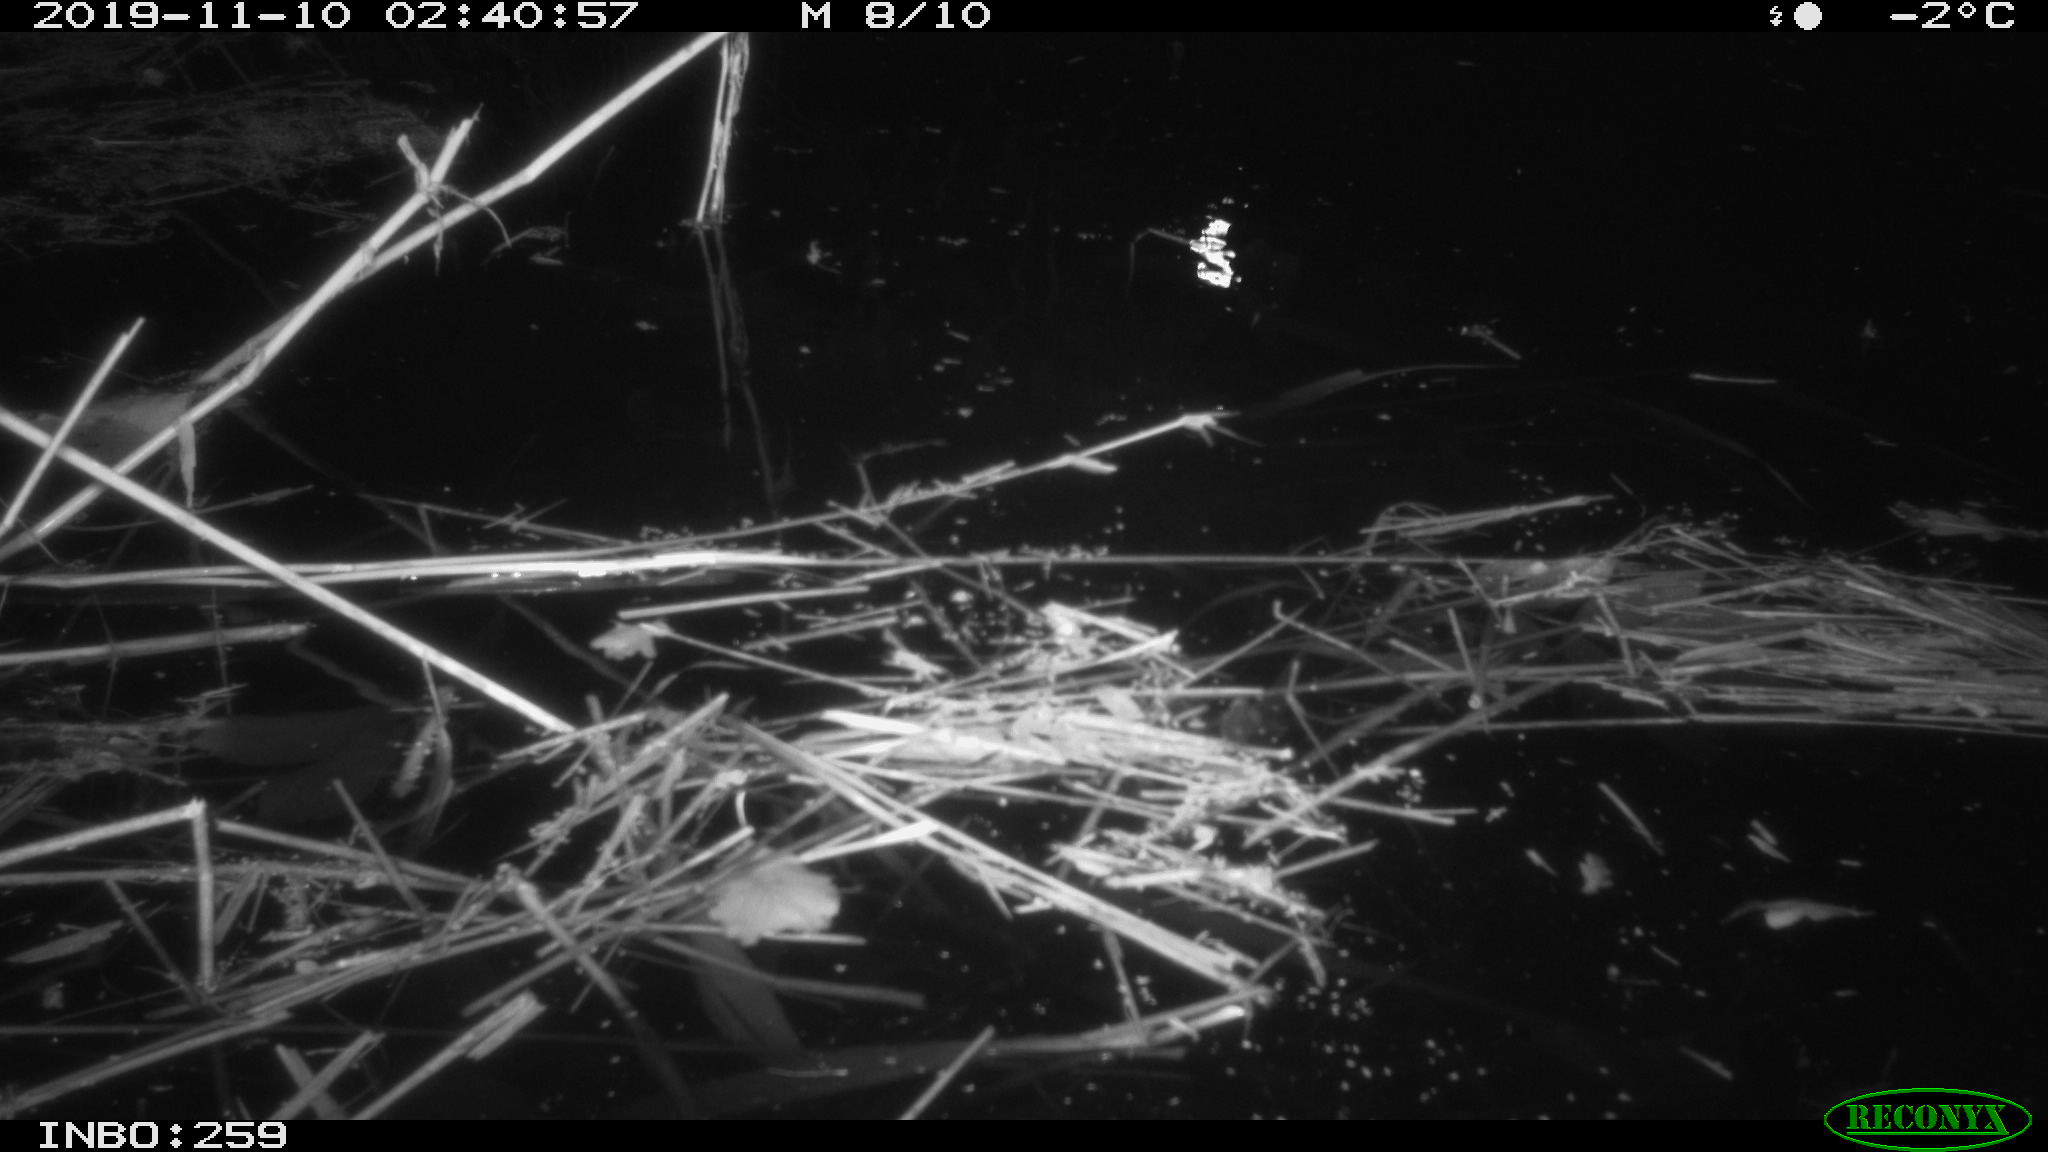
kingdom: Animalia
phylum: Chordata
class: Mammalia
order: Rodentia
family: Cricetidae
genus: Ondatra
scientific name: Ondatra zibethicus
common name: Muskrat
